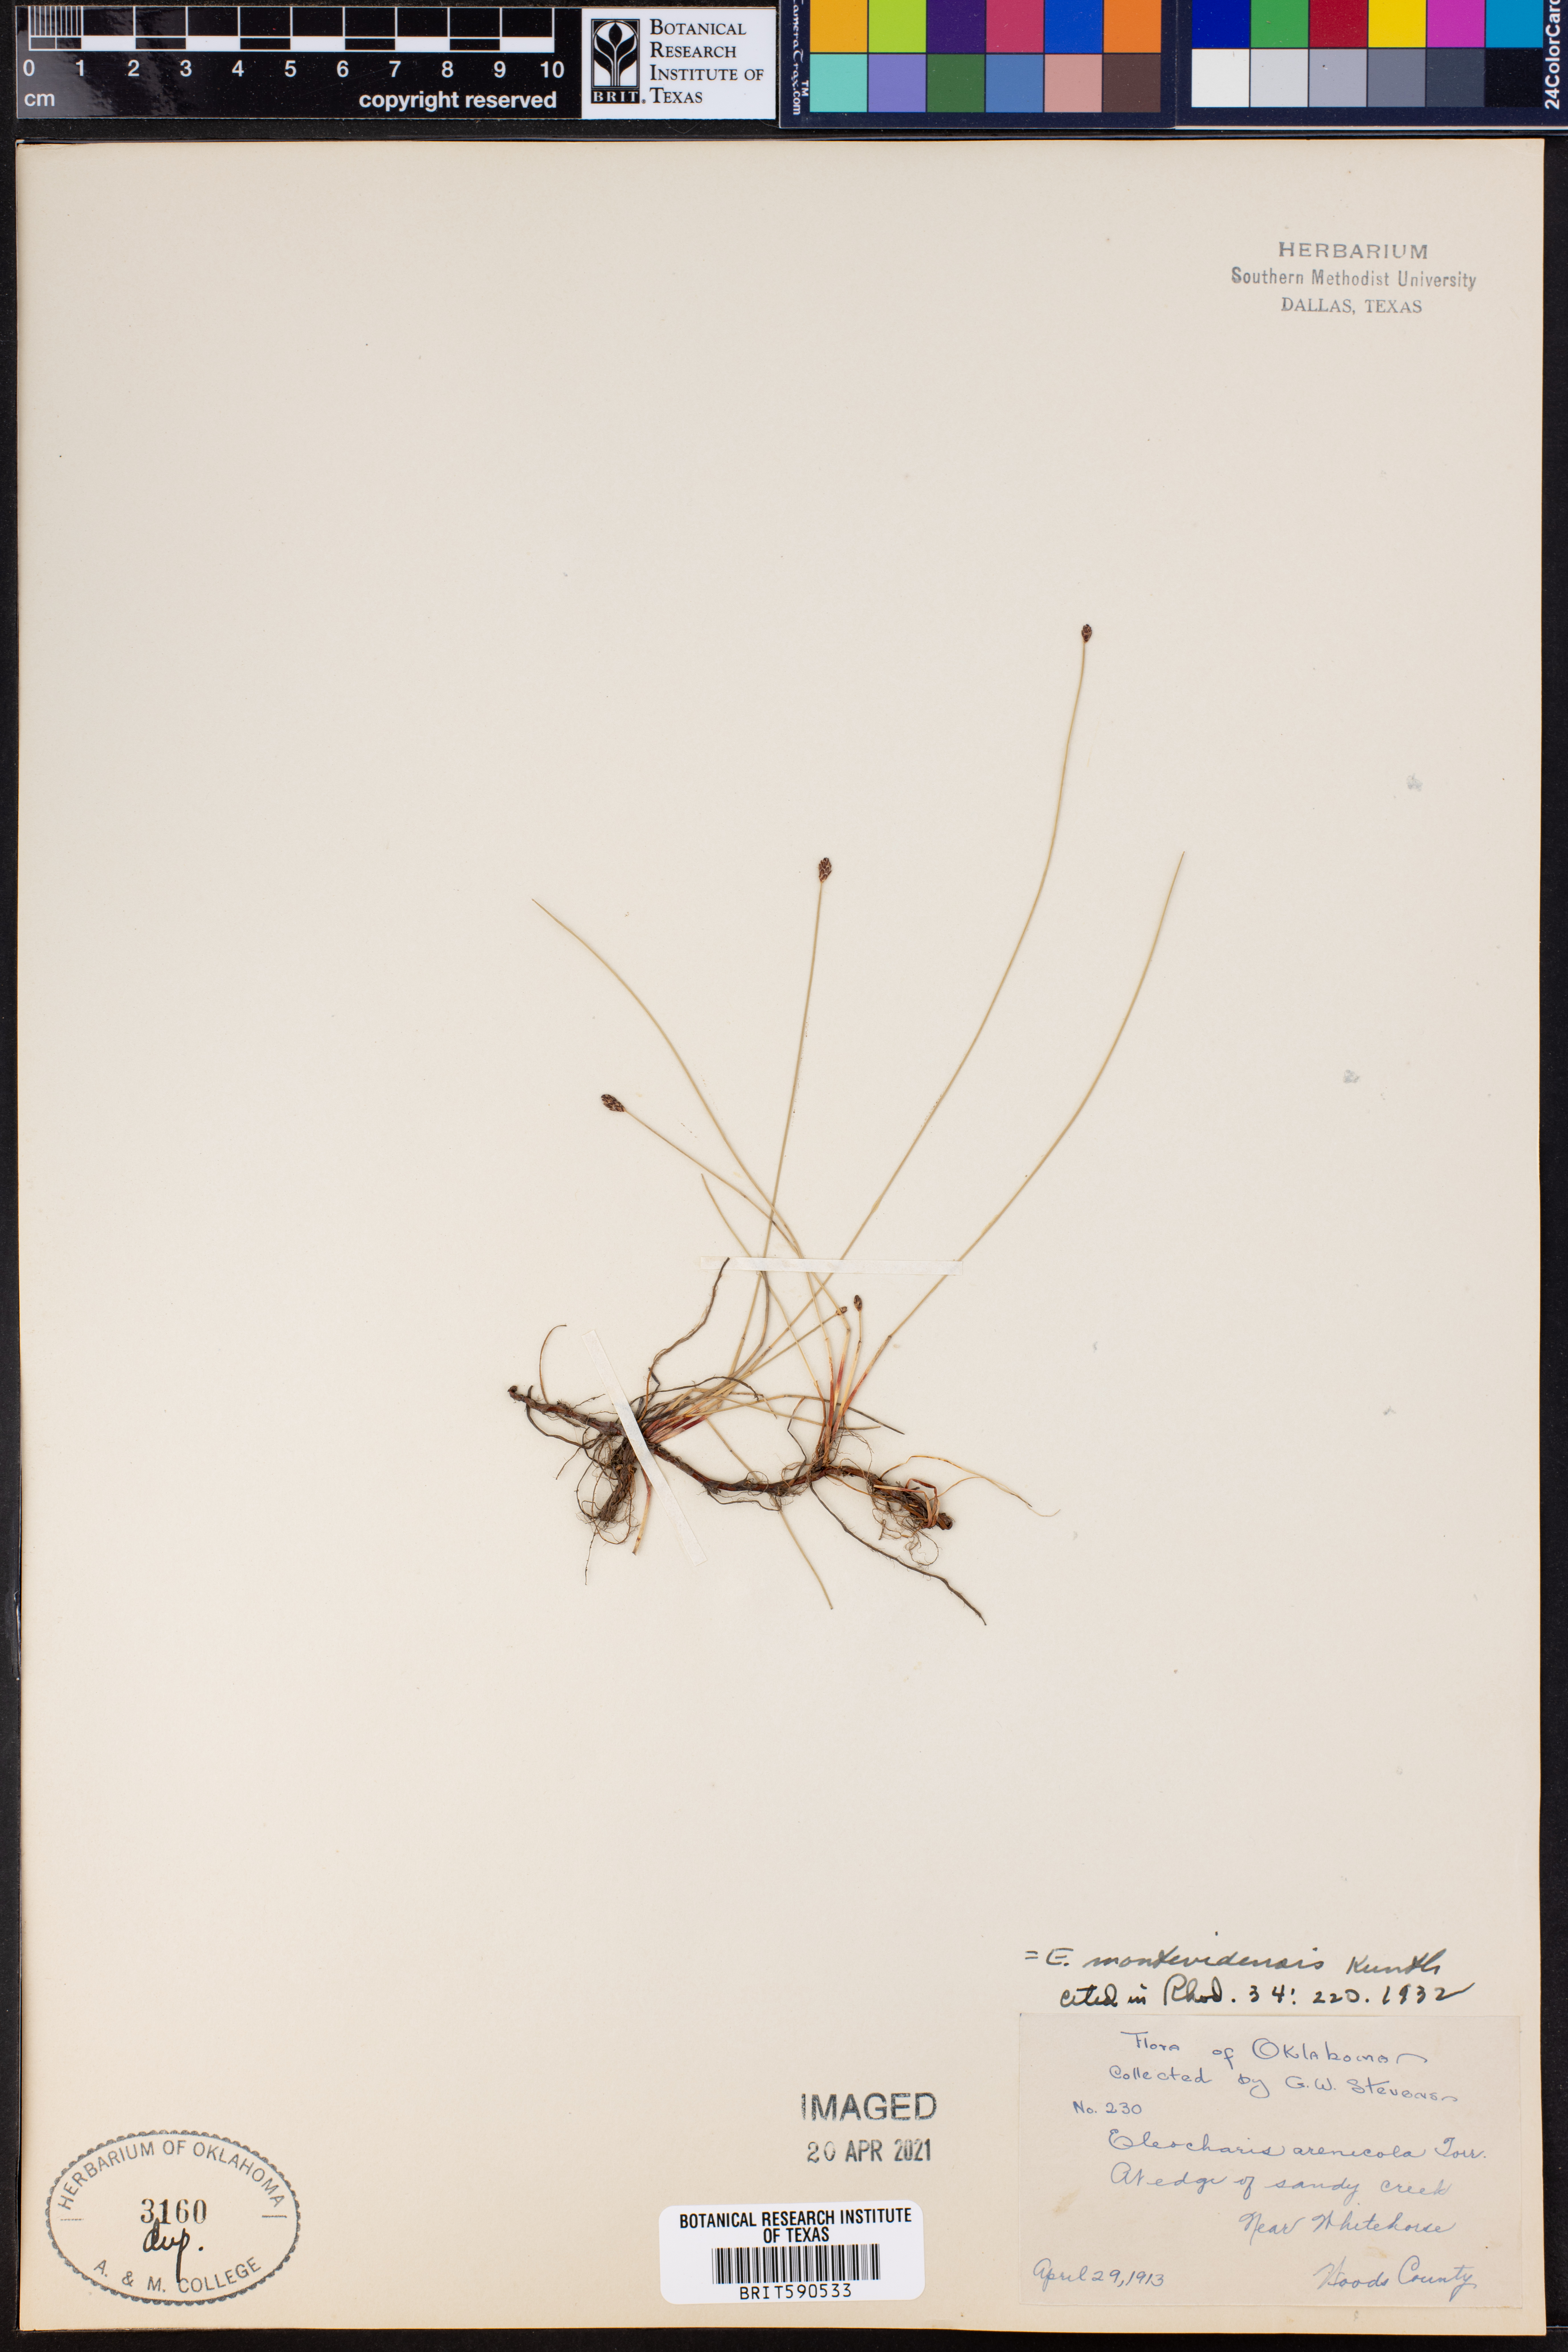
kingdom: Plantae
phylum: Tracheophyta
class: Liliopsida
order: Poales
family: Cyperaceae
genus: Eleocharis
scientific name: Eleocharis montevidensis
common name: Sand spike-rush
